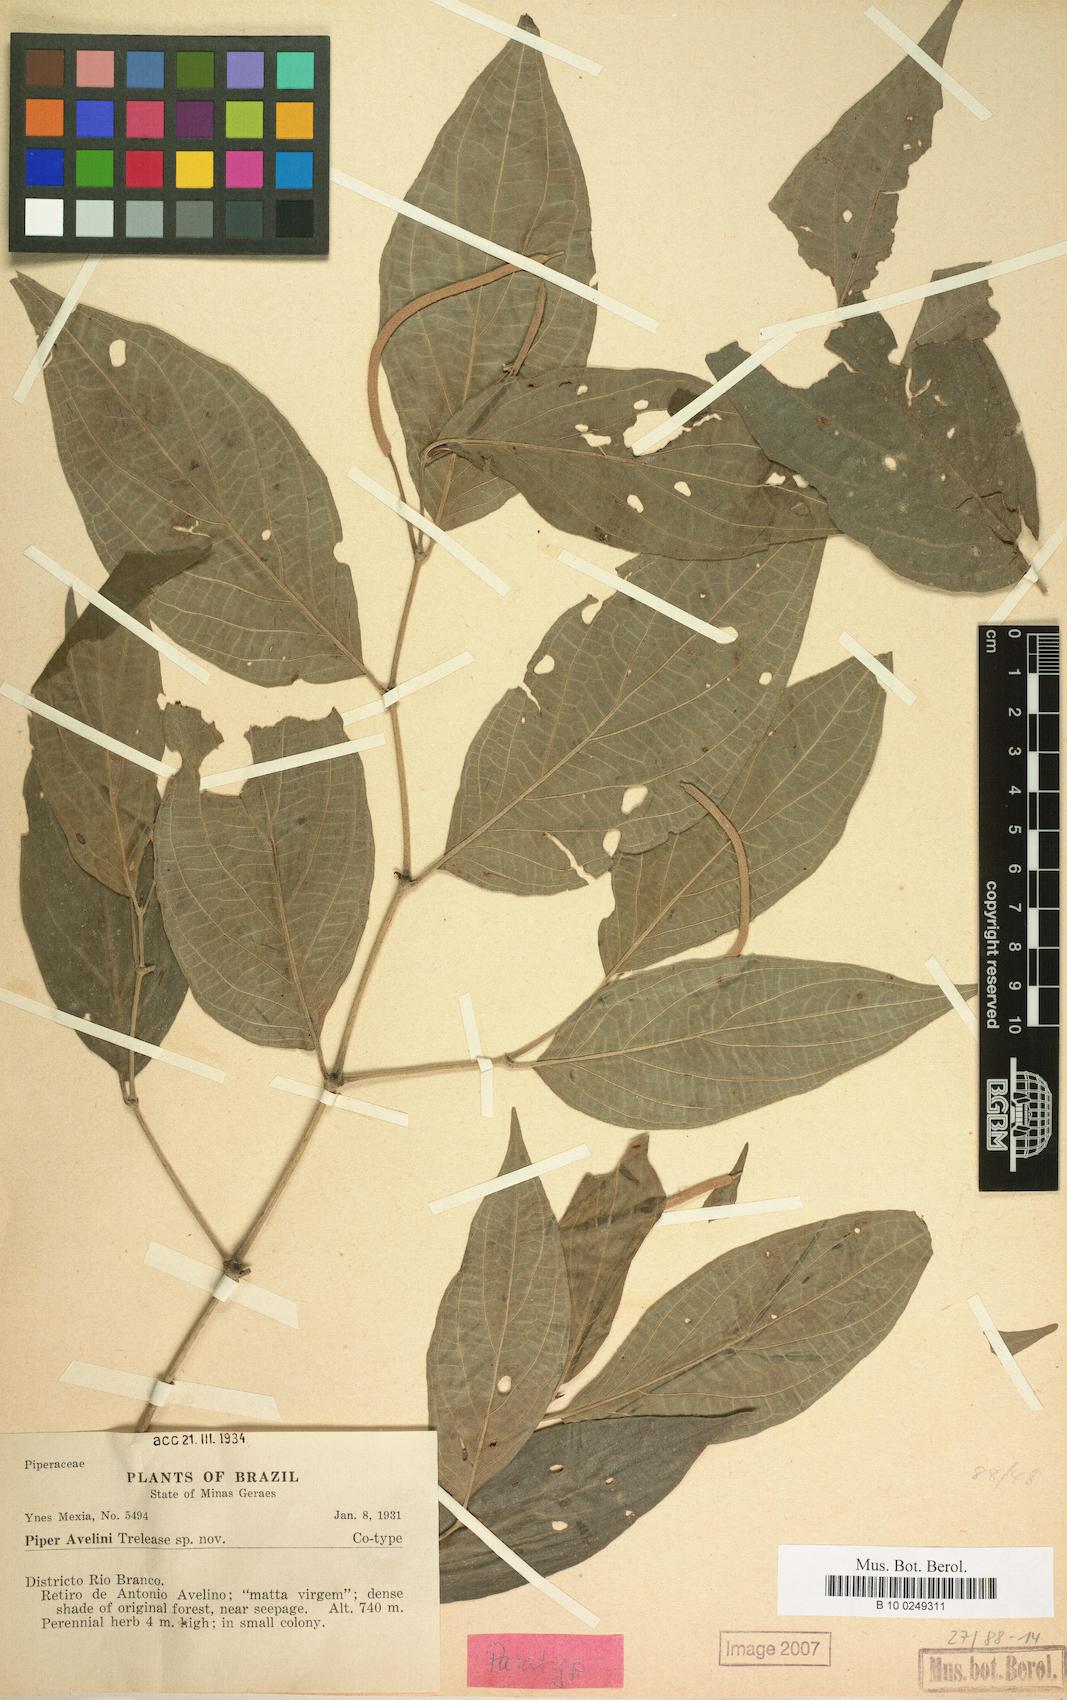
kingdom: Plantae
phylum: Tracheophyta
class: Magnoliopsida
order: Piperales
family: Piperaceae
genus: Piper
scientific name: Piper abellinum
